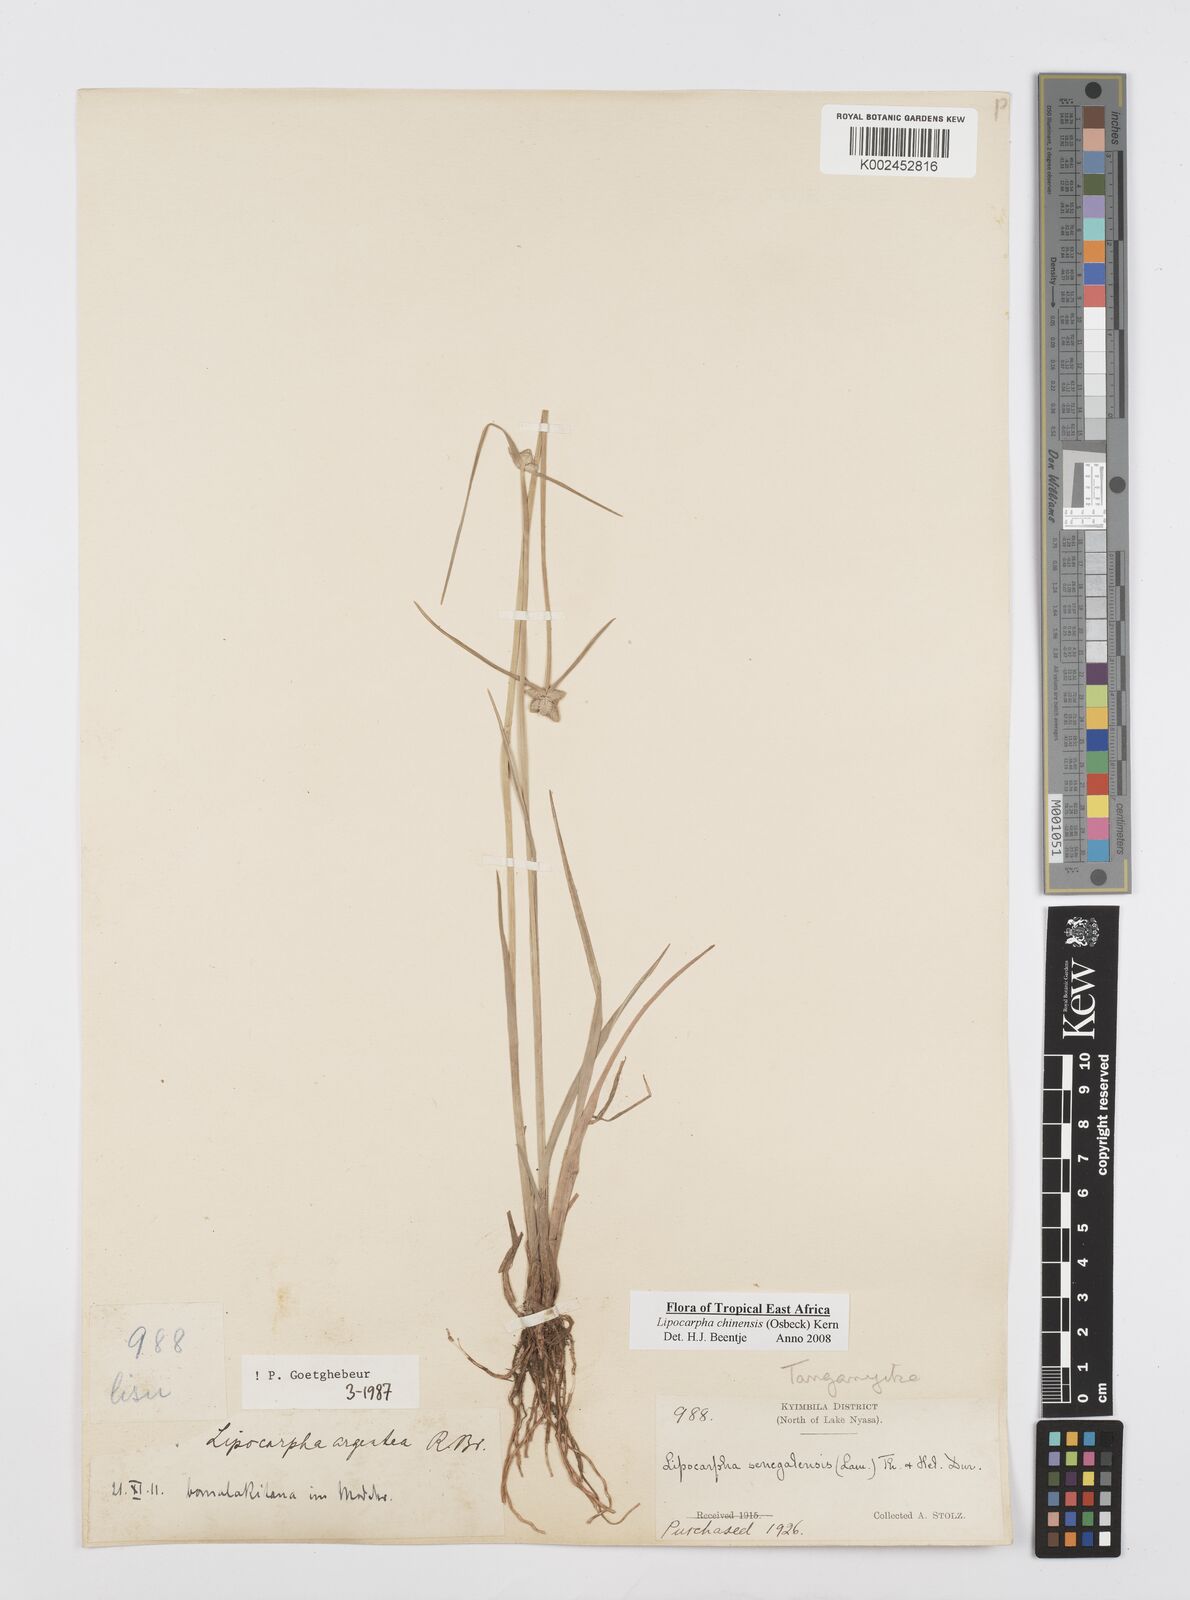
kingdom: Plantae
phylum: Tracheophyta
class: Liliopsida
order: Poales
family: Cyperaceae
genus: Cyperus
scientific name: Cyperus albescens
